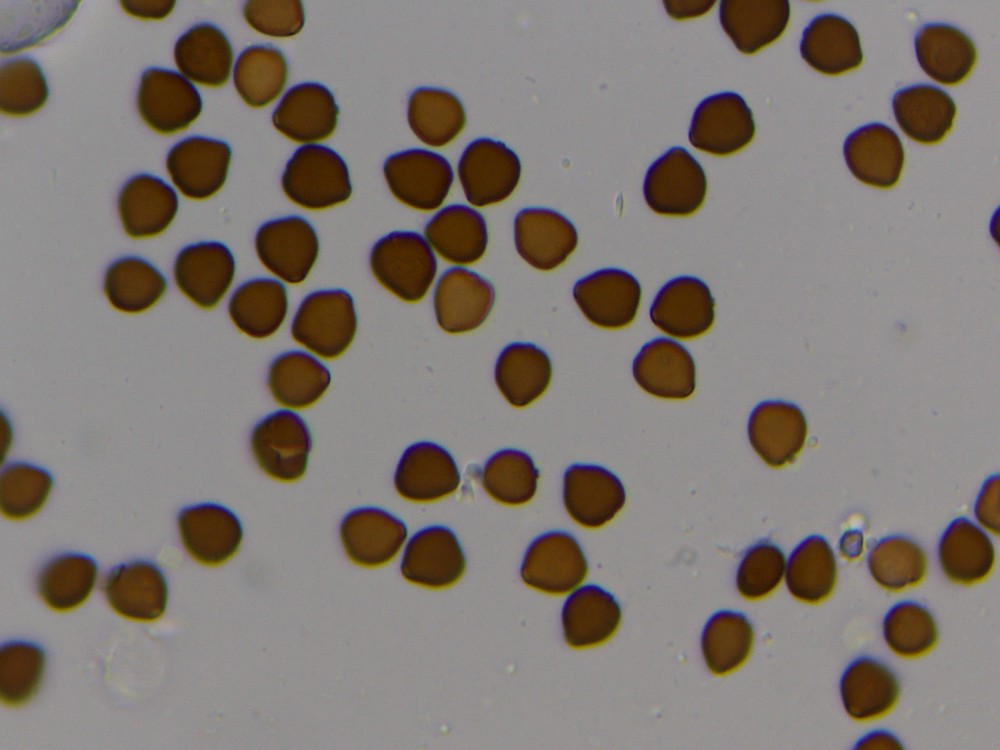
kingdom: Fungi
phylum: Basidiomycota
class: Agaricomycetes
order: Agaricales
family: Psathyrellaceae
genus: Narcissea
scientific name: Narcissea patouillardii
